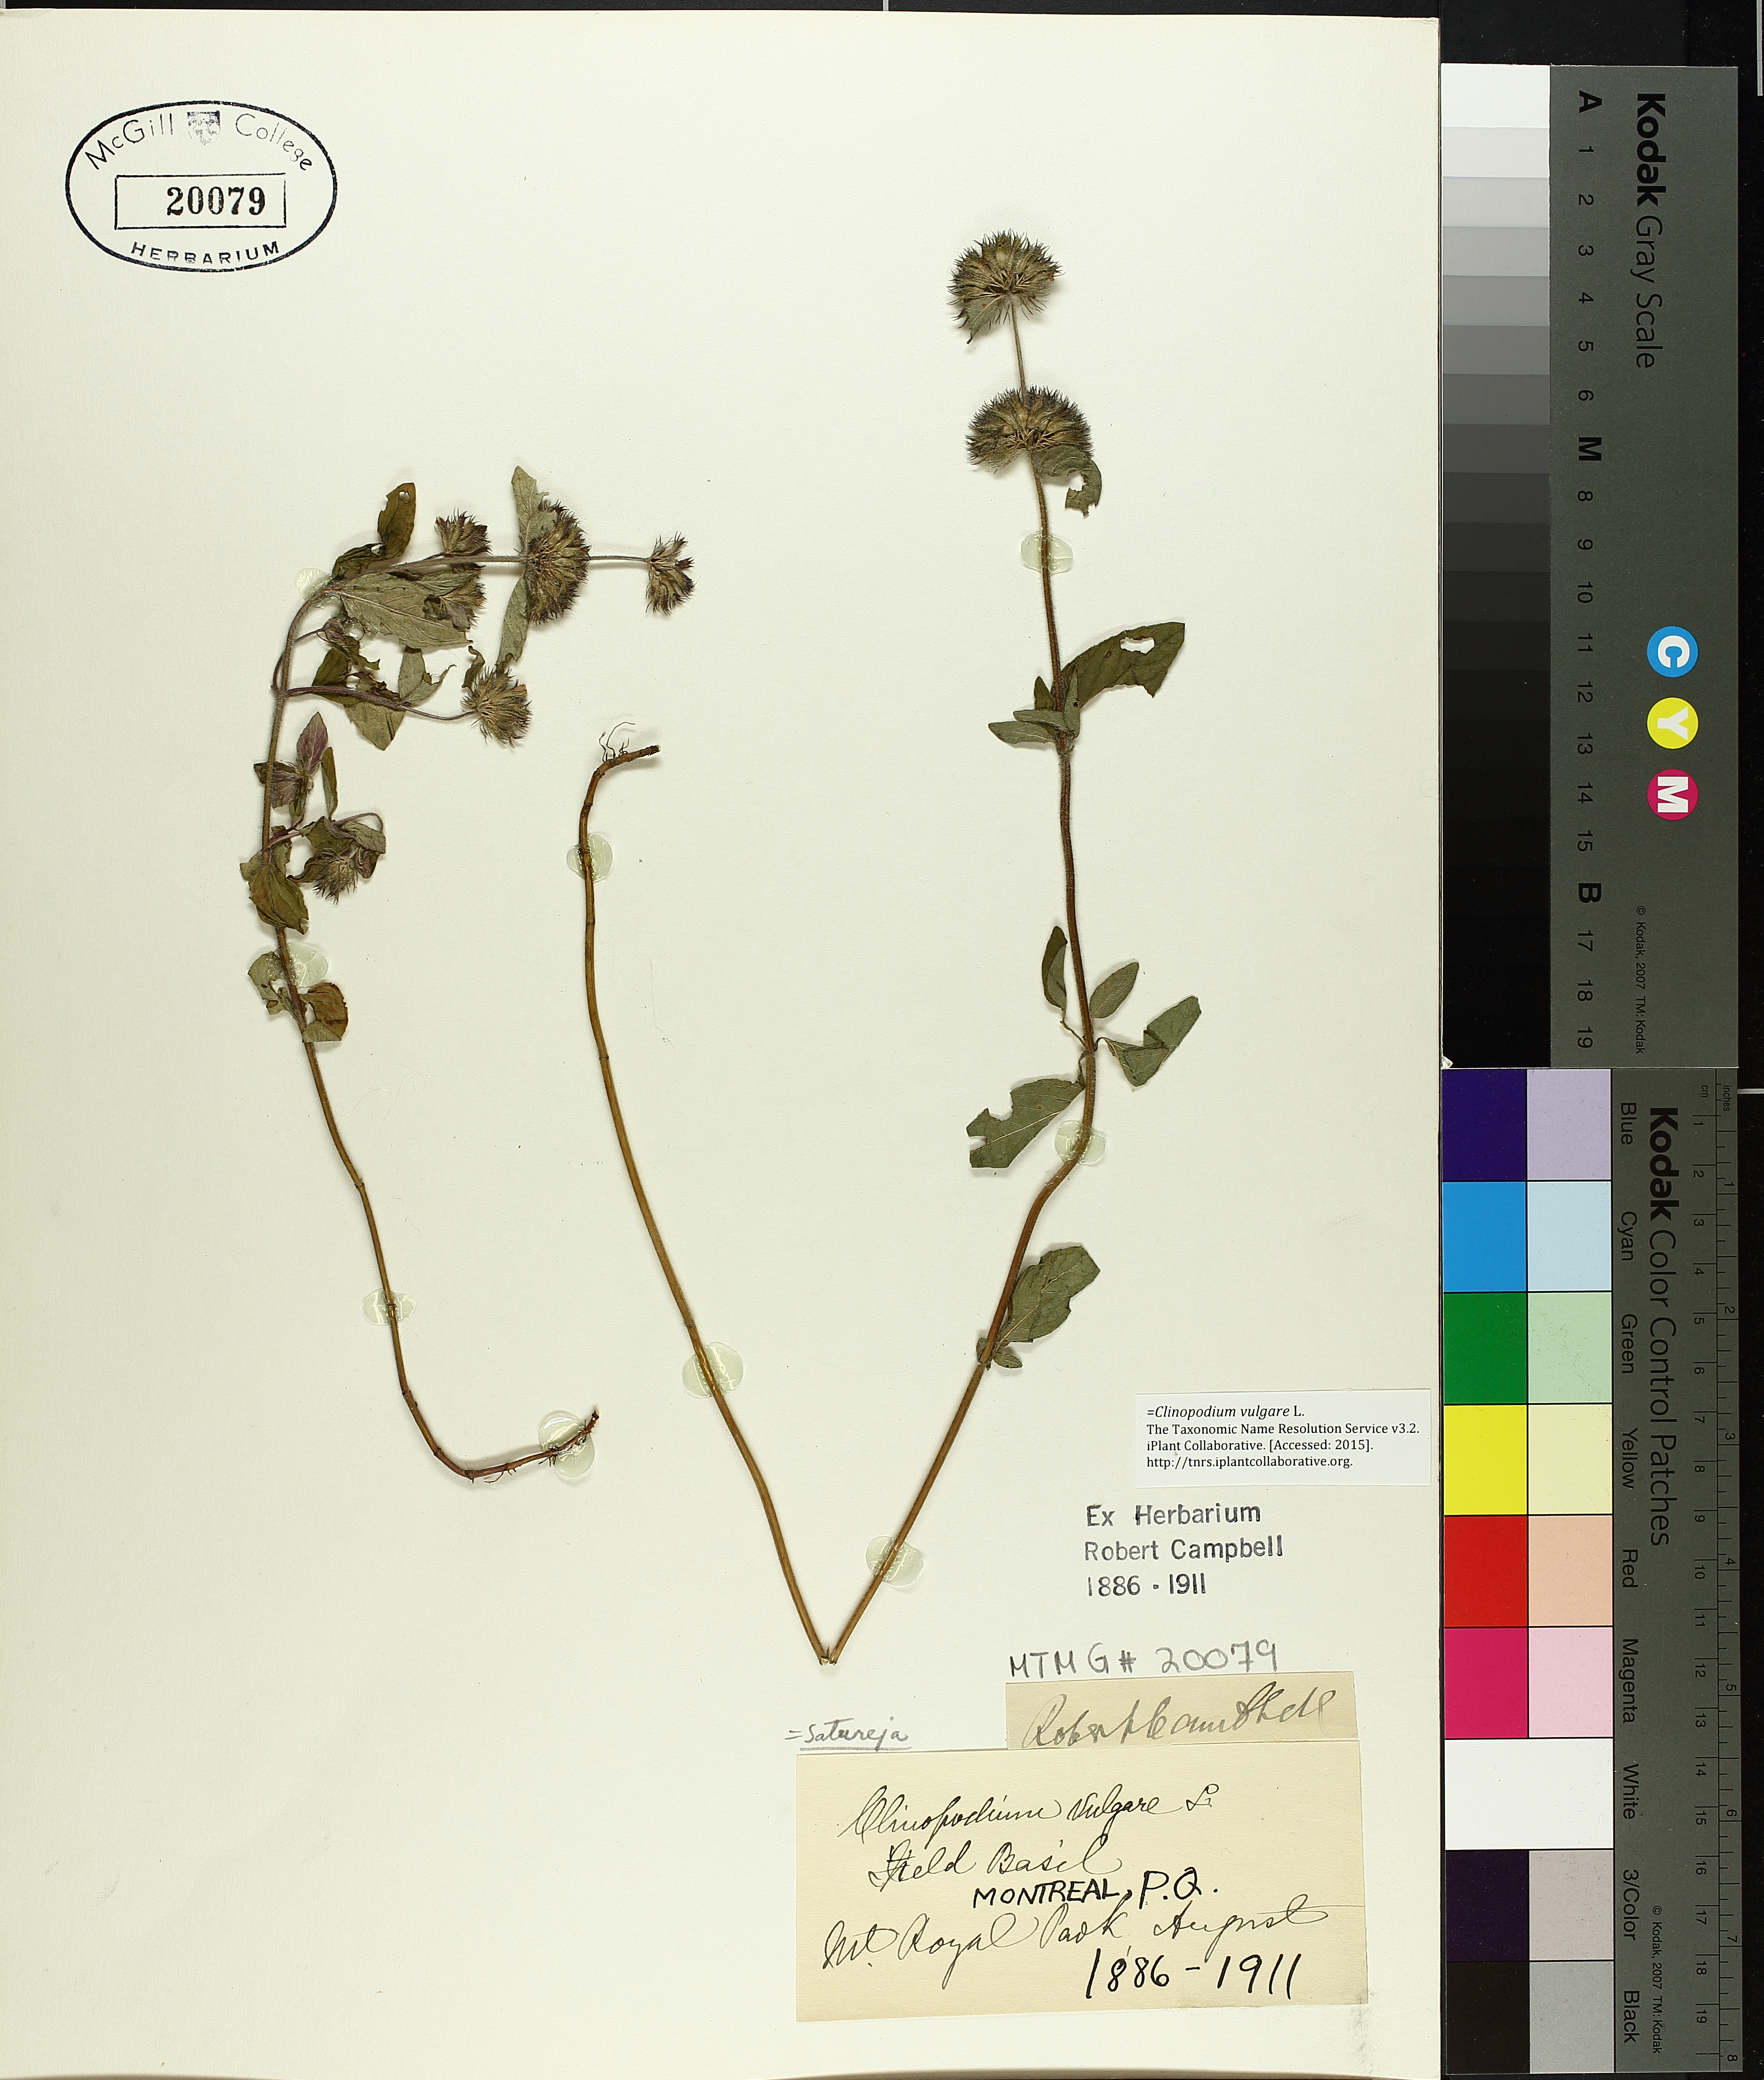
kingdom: Plantae
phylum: Tracheophyta
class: Magnoliopsida
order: Lamiales
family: Lamiaceae
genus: Clinopodium
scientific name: Clinopodium vulgare
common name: Wild basil
